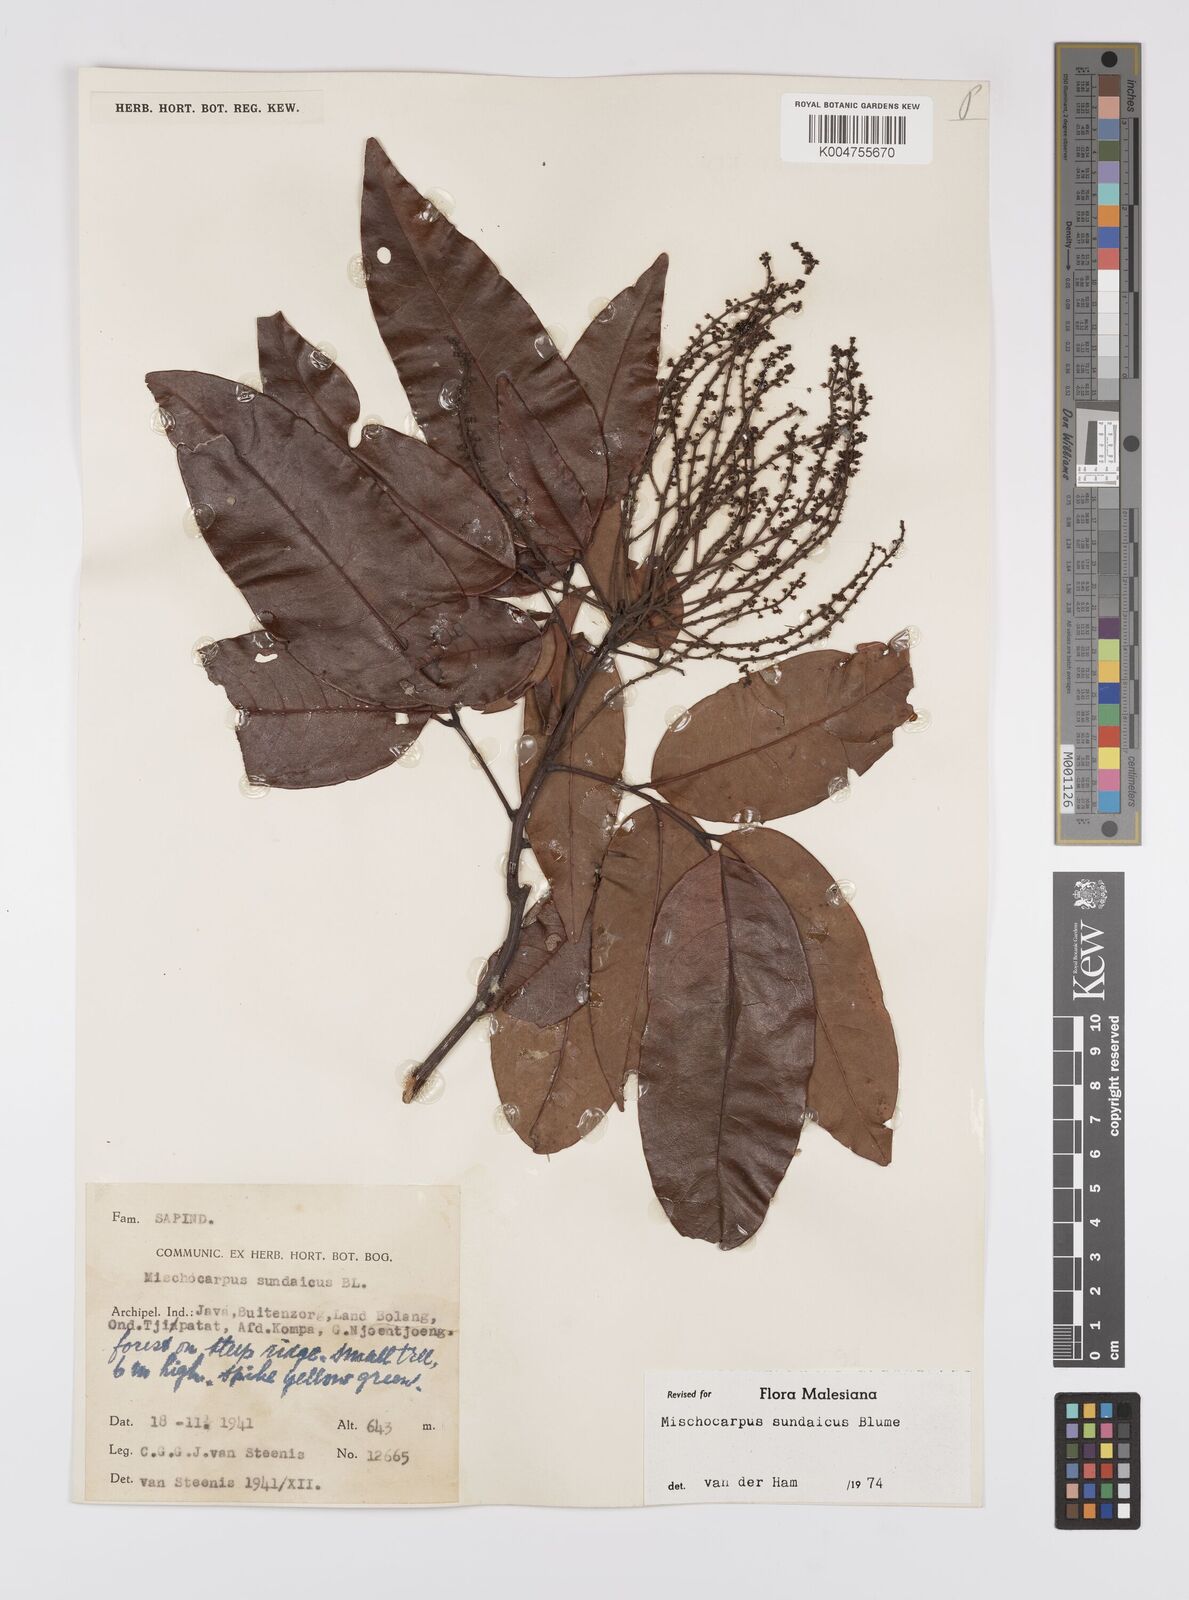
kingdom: Plantae
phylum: Tracheophyta
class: Magnoliopsida
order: Sapindales
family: Sapindaceae
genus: Mischocarpus
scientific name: Mischocarpus sundaicus
